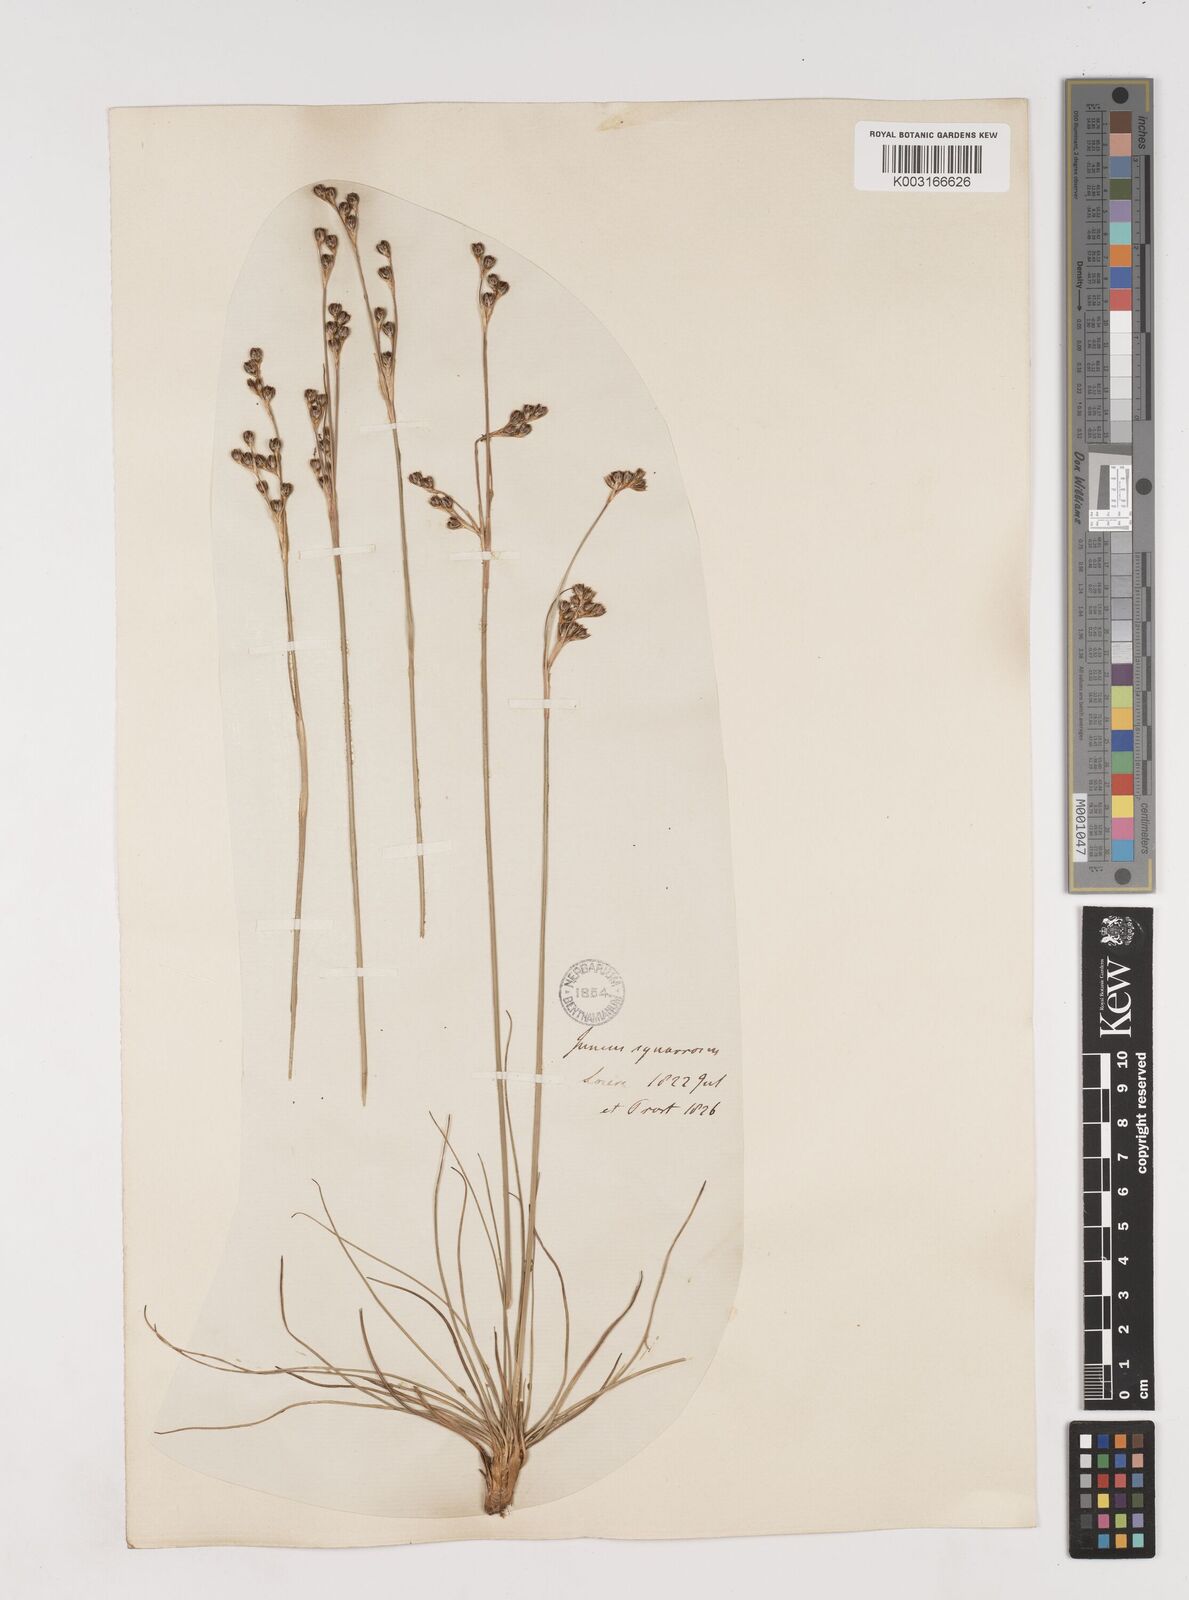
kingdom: Plantae
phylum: Tracheophyta
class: Liliopsida
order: Poales
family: Juncaceae
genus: Juncus
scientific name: Juncus squarrosus
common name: Heath rush
